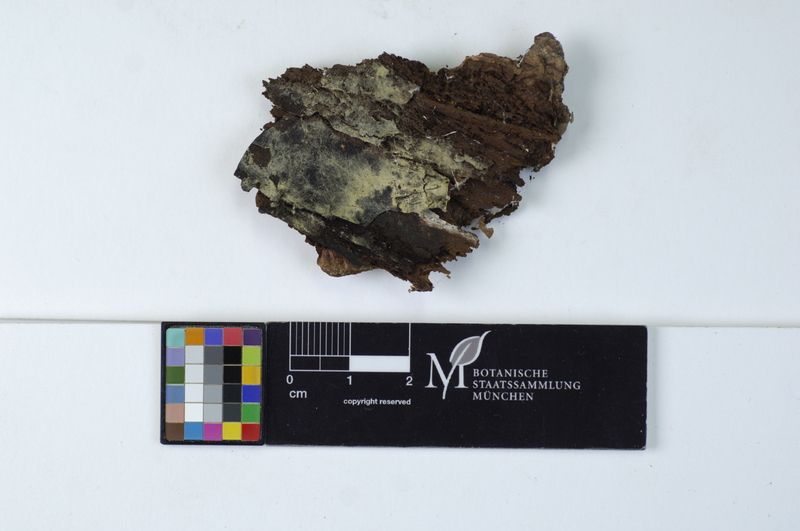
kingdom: Plantae
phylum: Tracheophyta
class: Pinopsida
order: Pinales
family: Pinaceae
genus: Picea
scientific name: Picea
